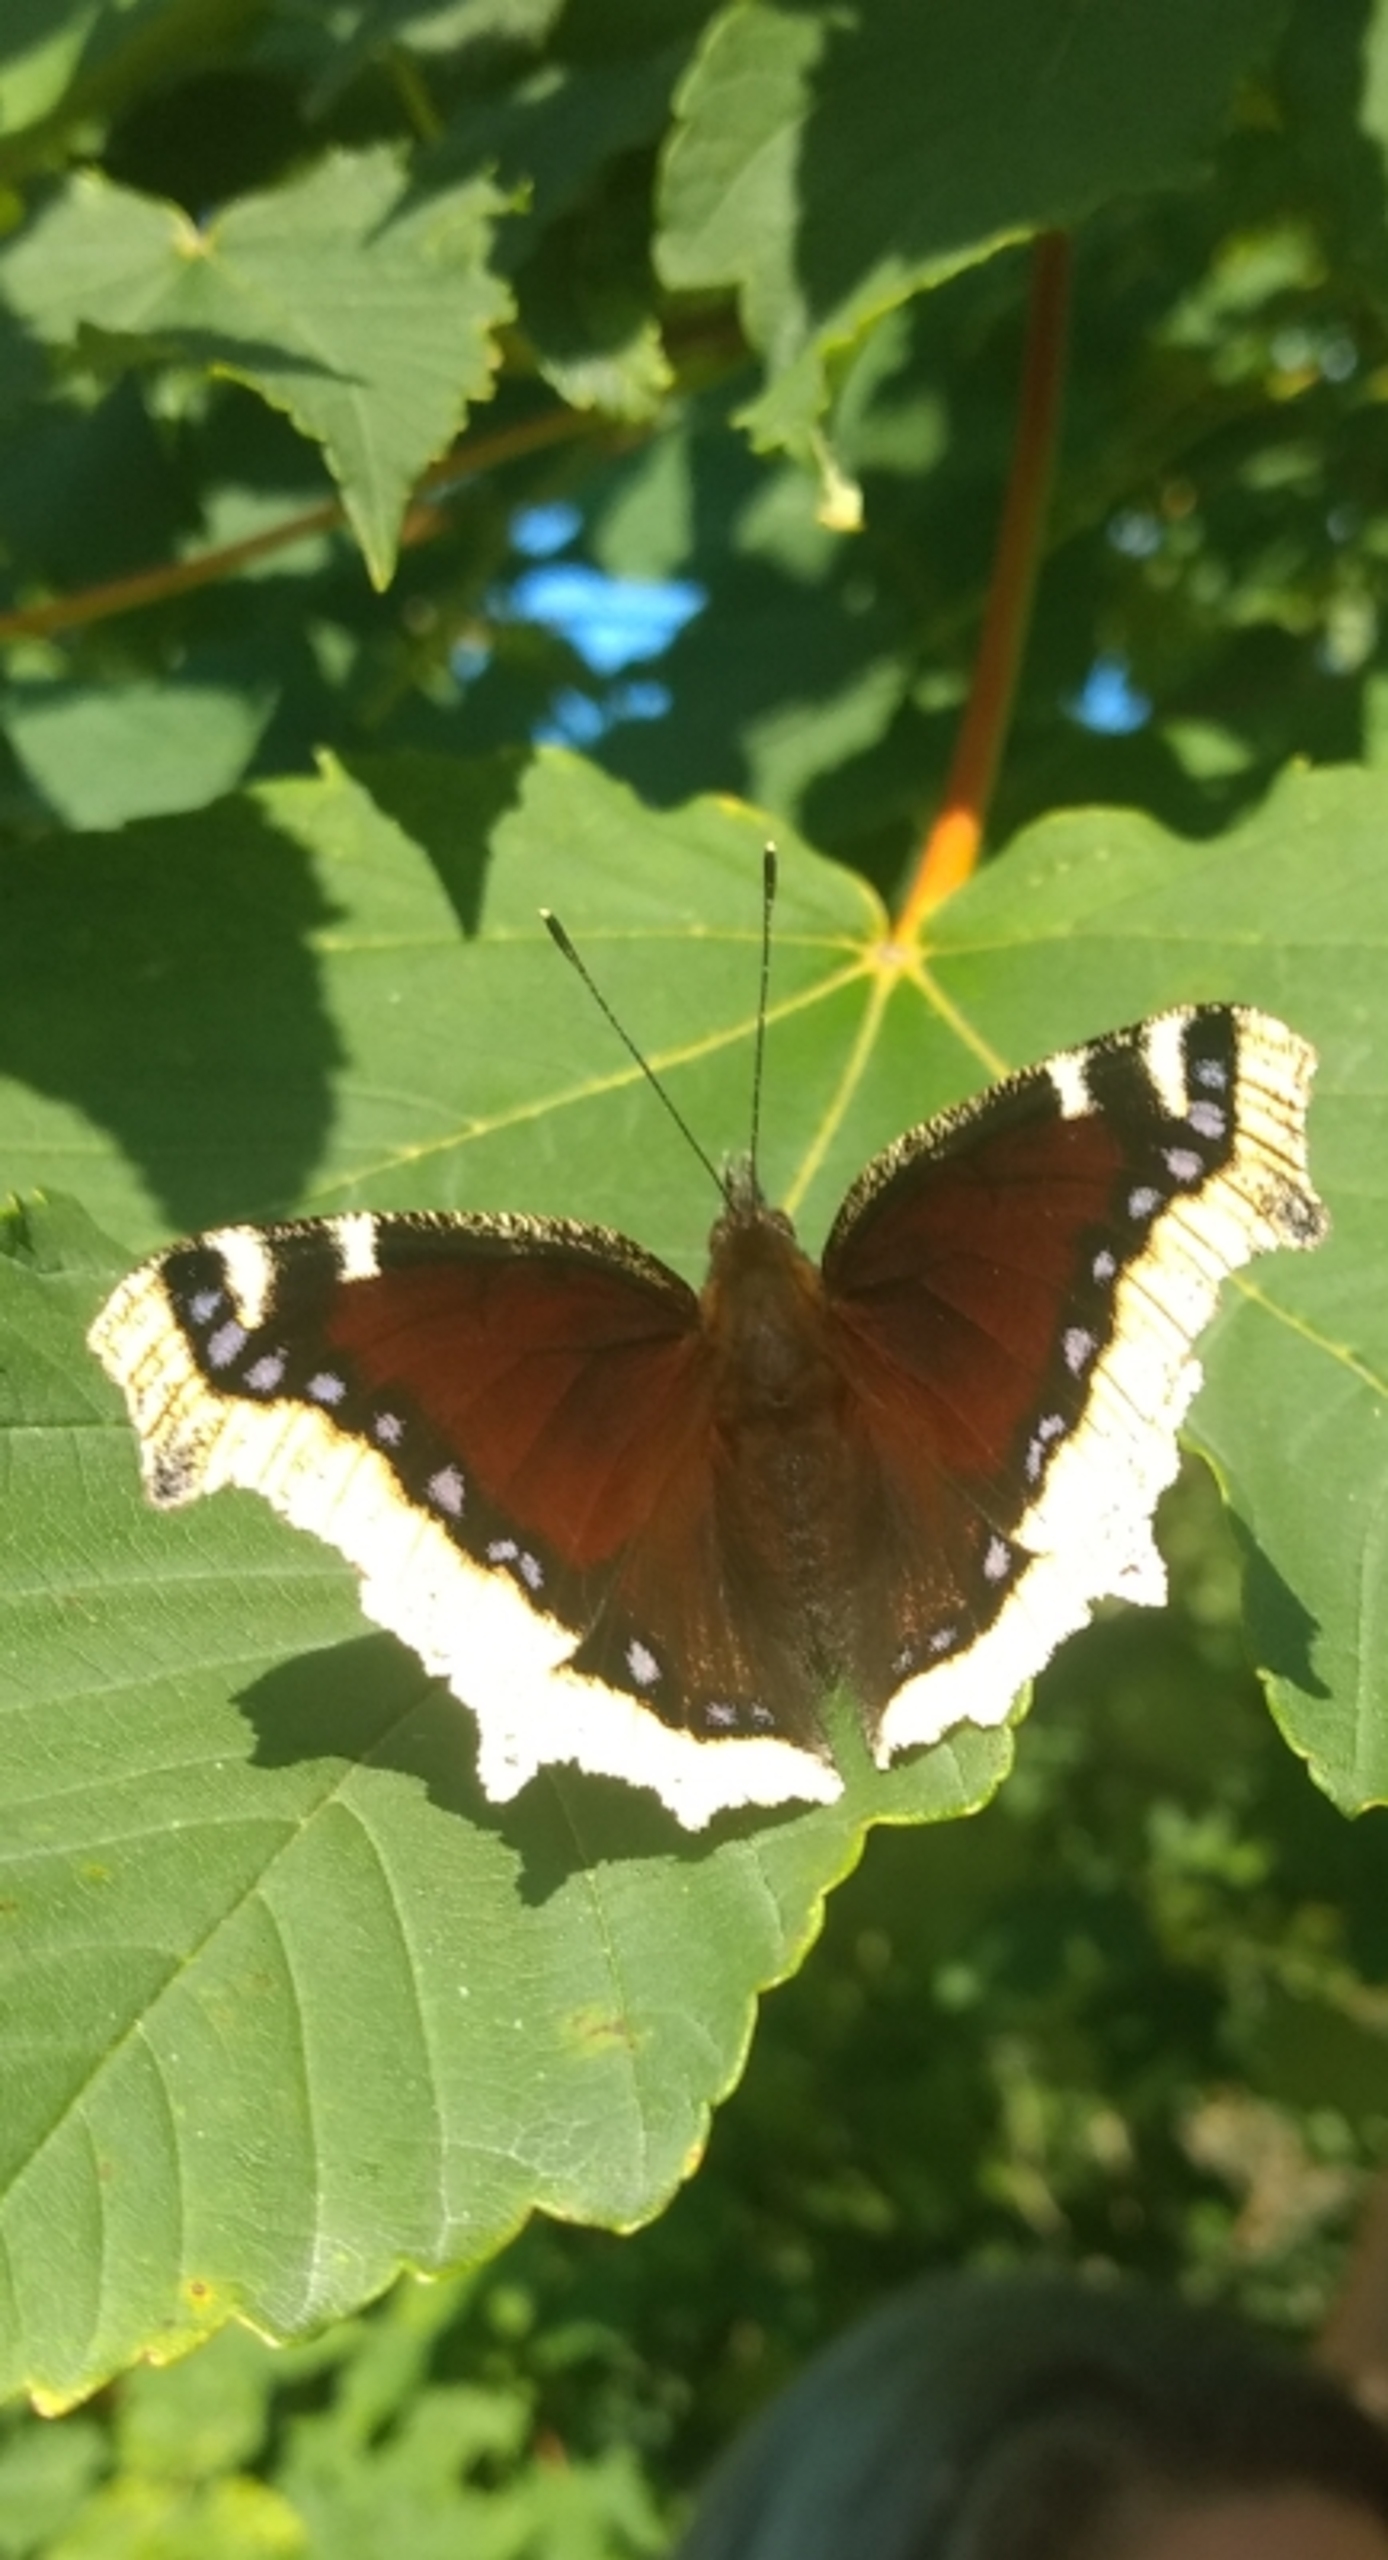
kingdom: Animalia
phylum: Arthropoda
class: Insecta
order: Lepidoptera
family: Nymphalidae
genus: Nymphalis
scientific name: Nymphalis antiopa
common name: Sørgekåbe
